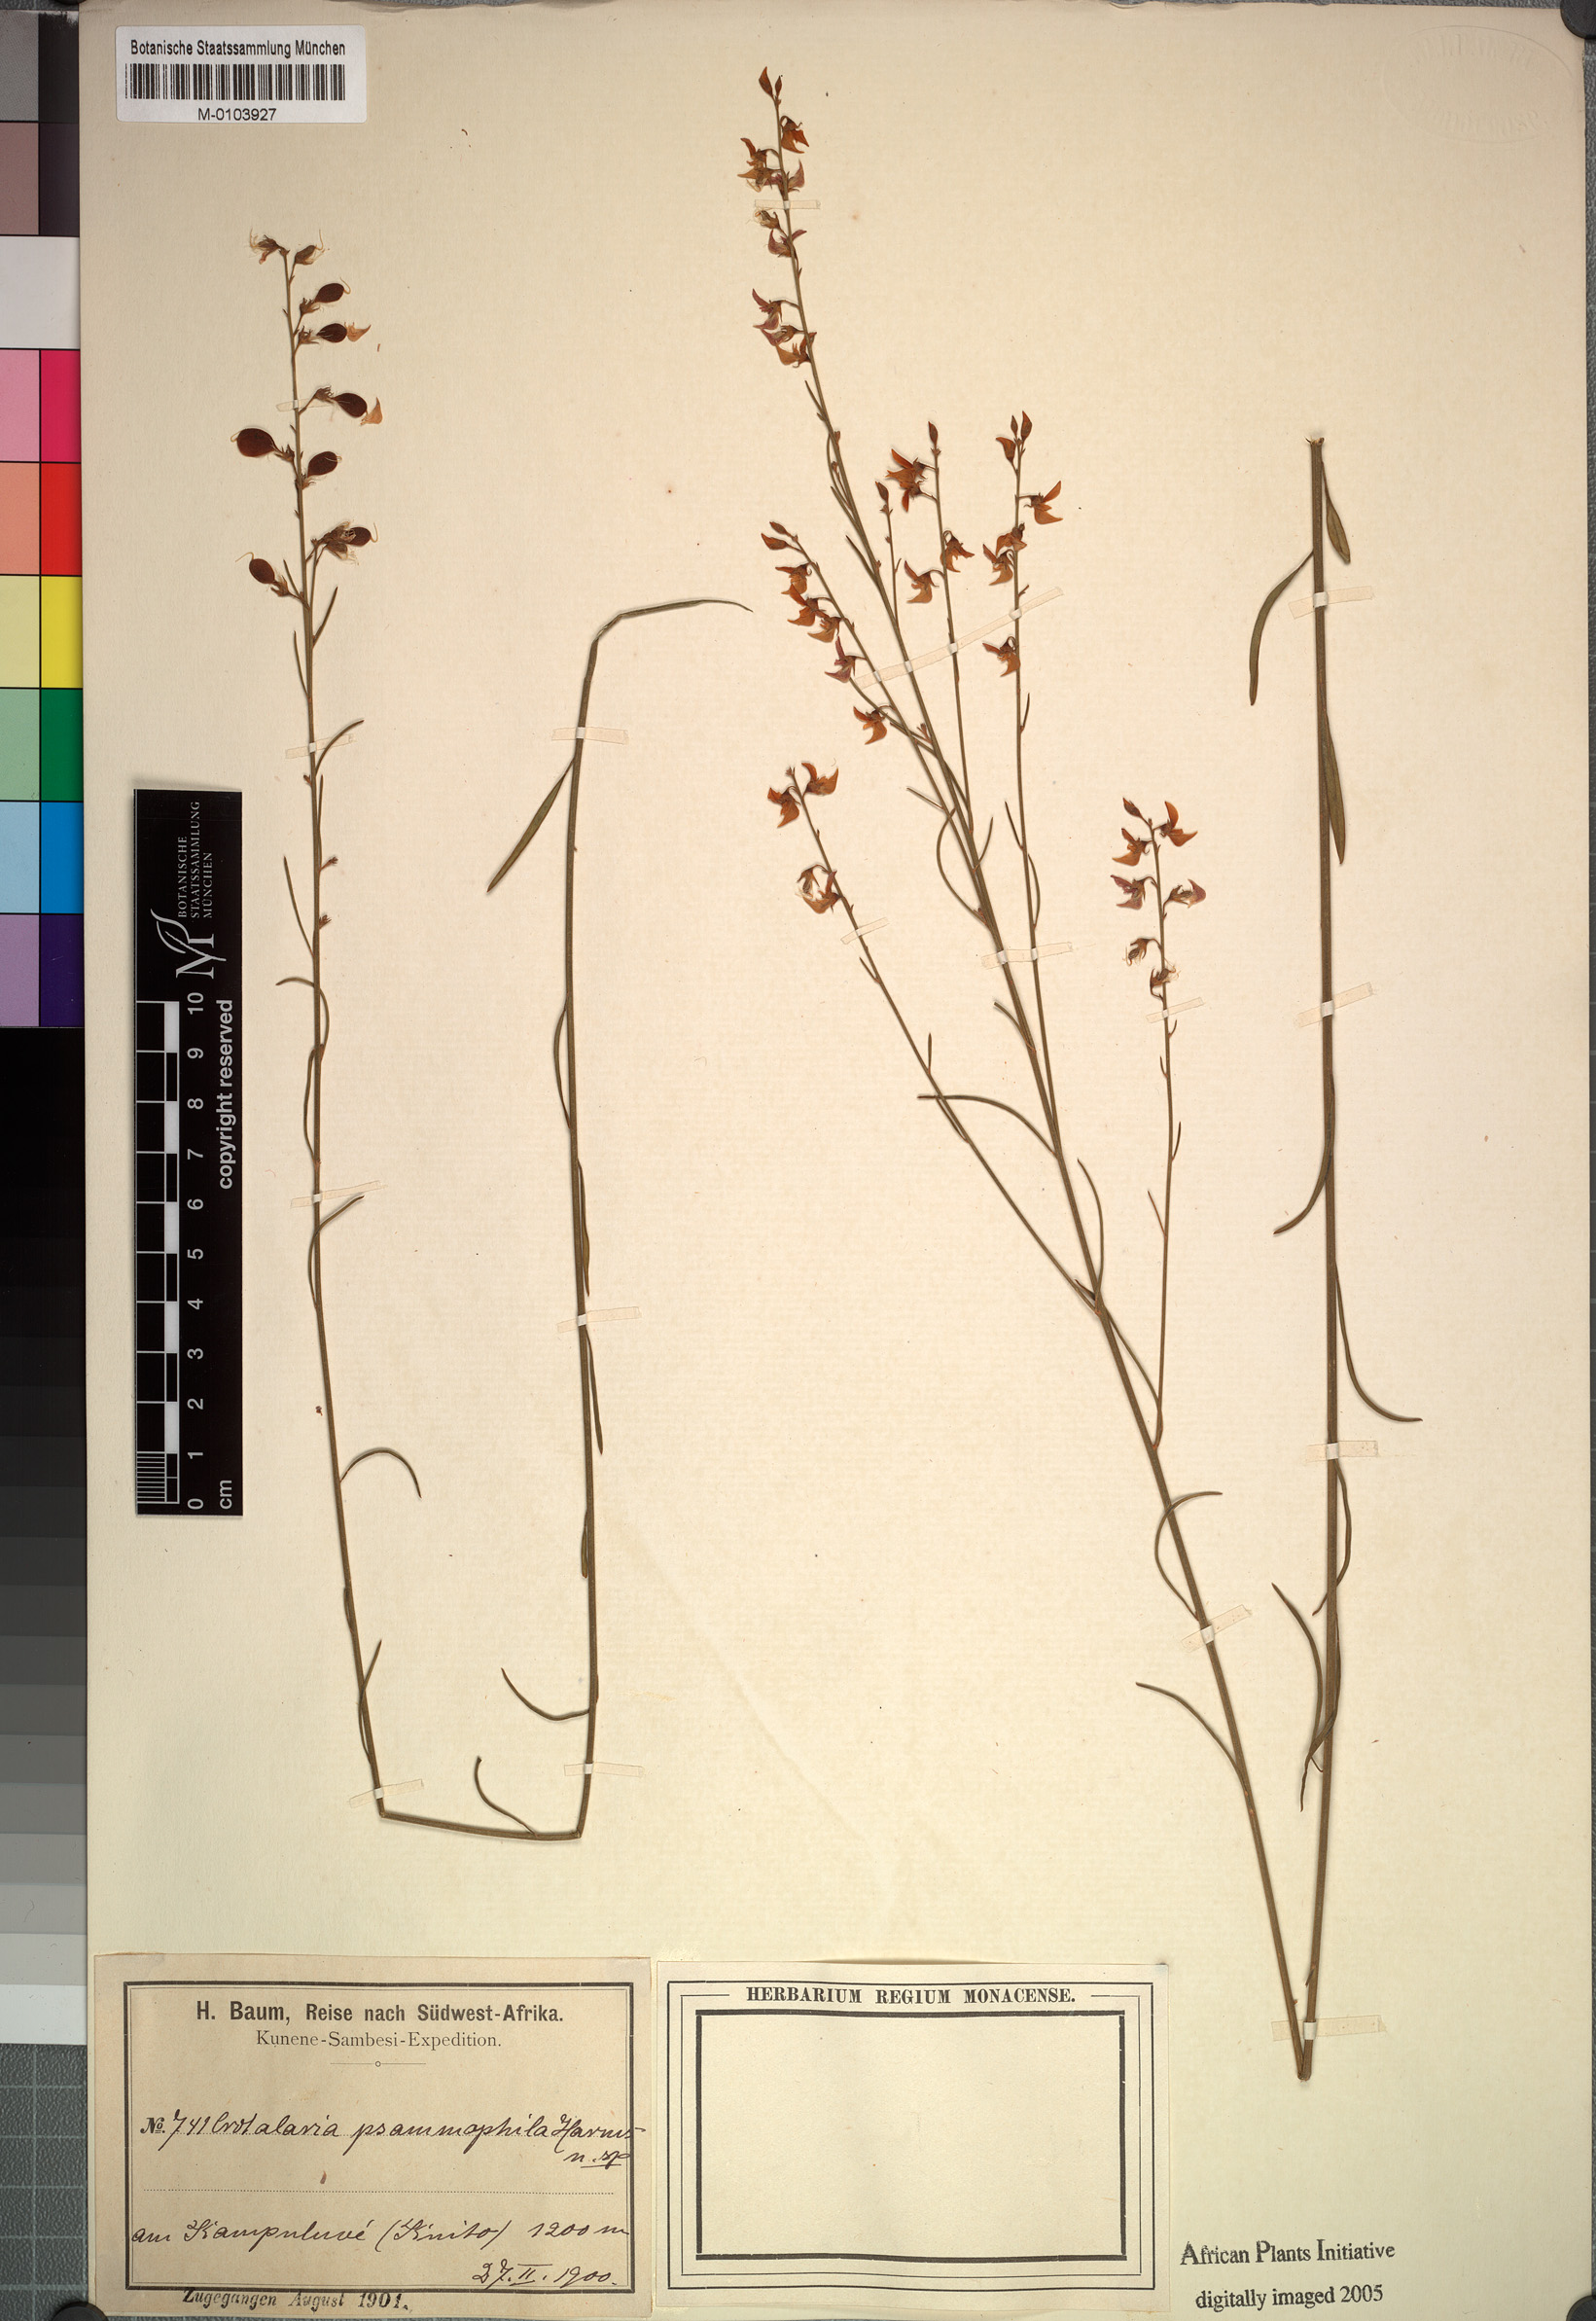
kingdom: Plantae
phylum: Tracheophyta
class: Magnoliopsida
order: Fabales
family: Fabaceae
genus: Crotalaria
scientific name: Crotalaria psammophila
